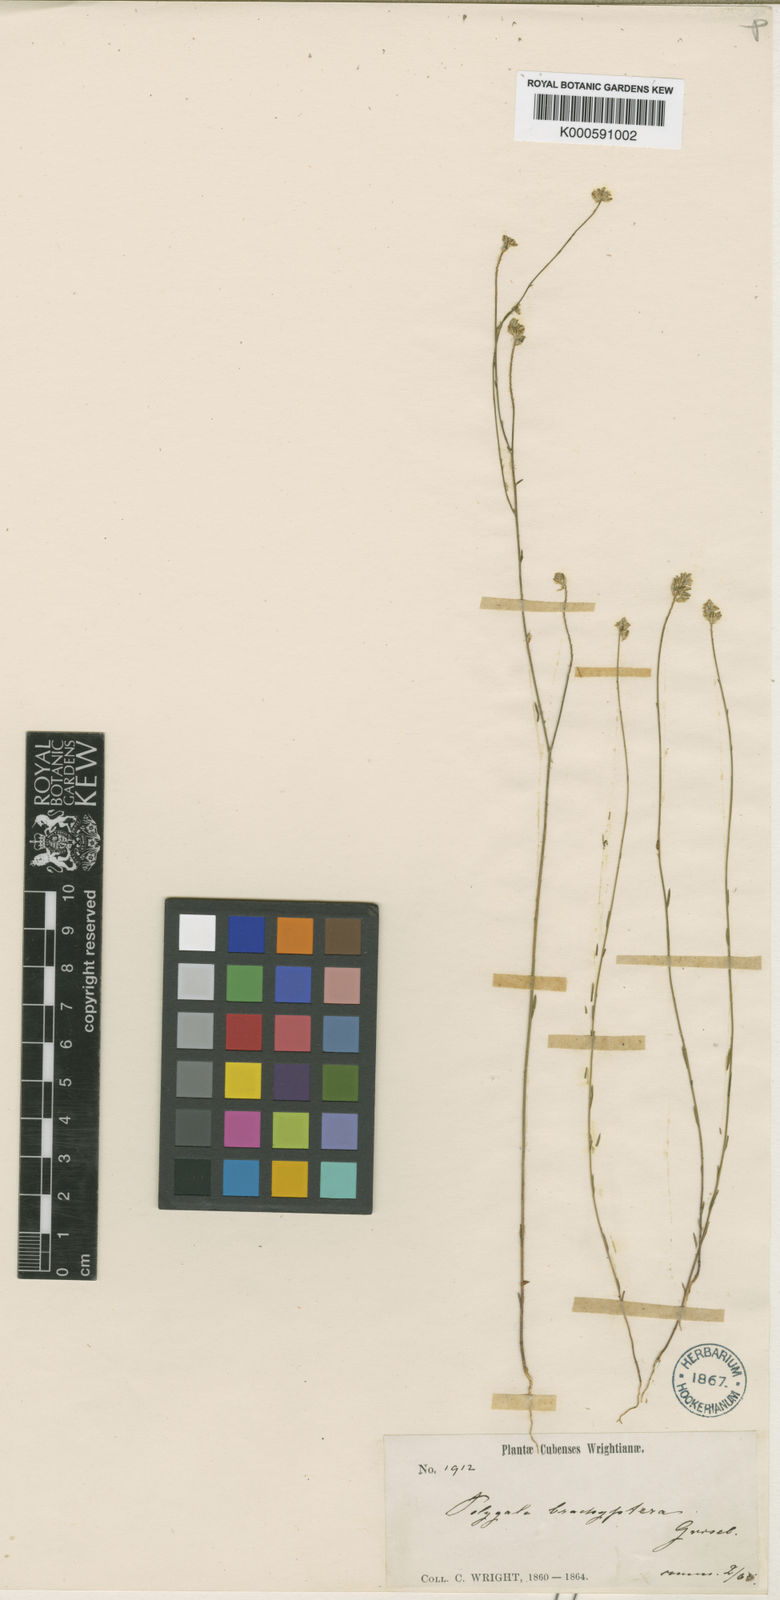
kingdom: Plantae
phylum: Tracheophyta
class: Magnoliopsida
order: Fabales
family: Polygalaceae
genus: Polygala
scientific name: Polygala brachyptera
